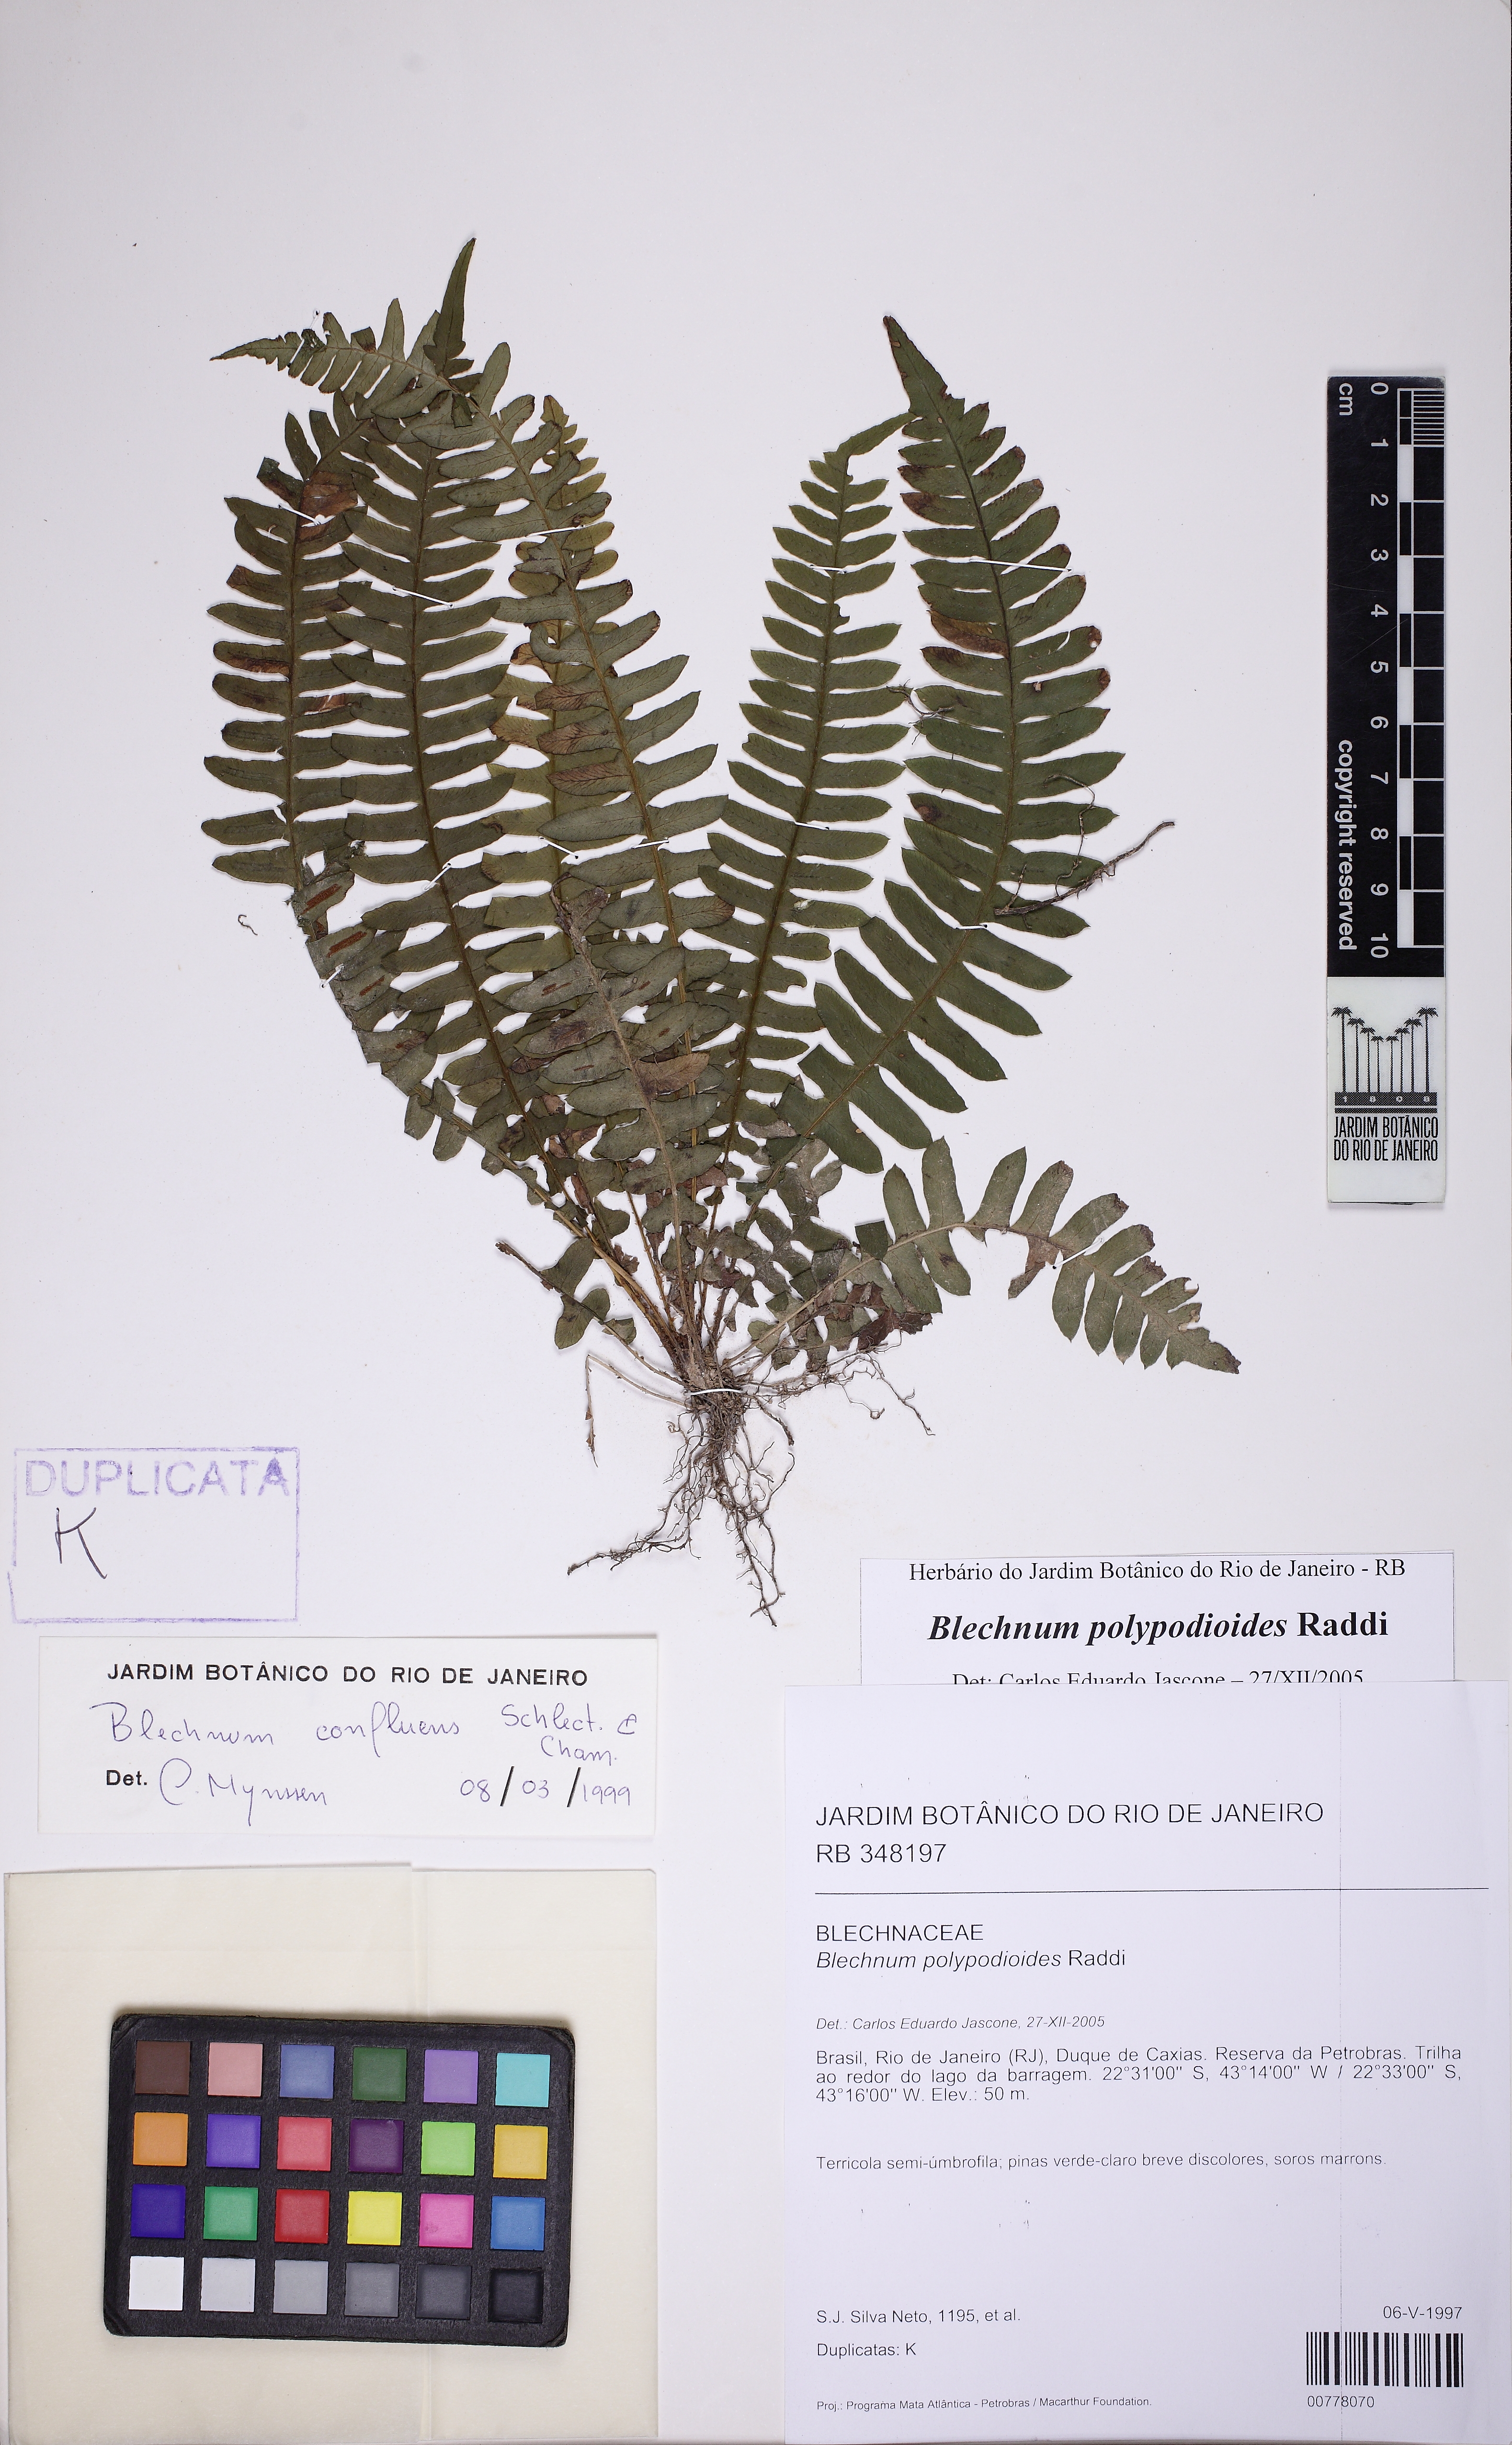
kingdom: Plantae
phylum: Tracheophyta
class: Polypodiopsida
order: Polypodiales
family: Blechnaceae
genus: Blechnum
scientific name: Blechnum polypodioides
